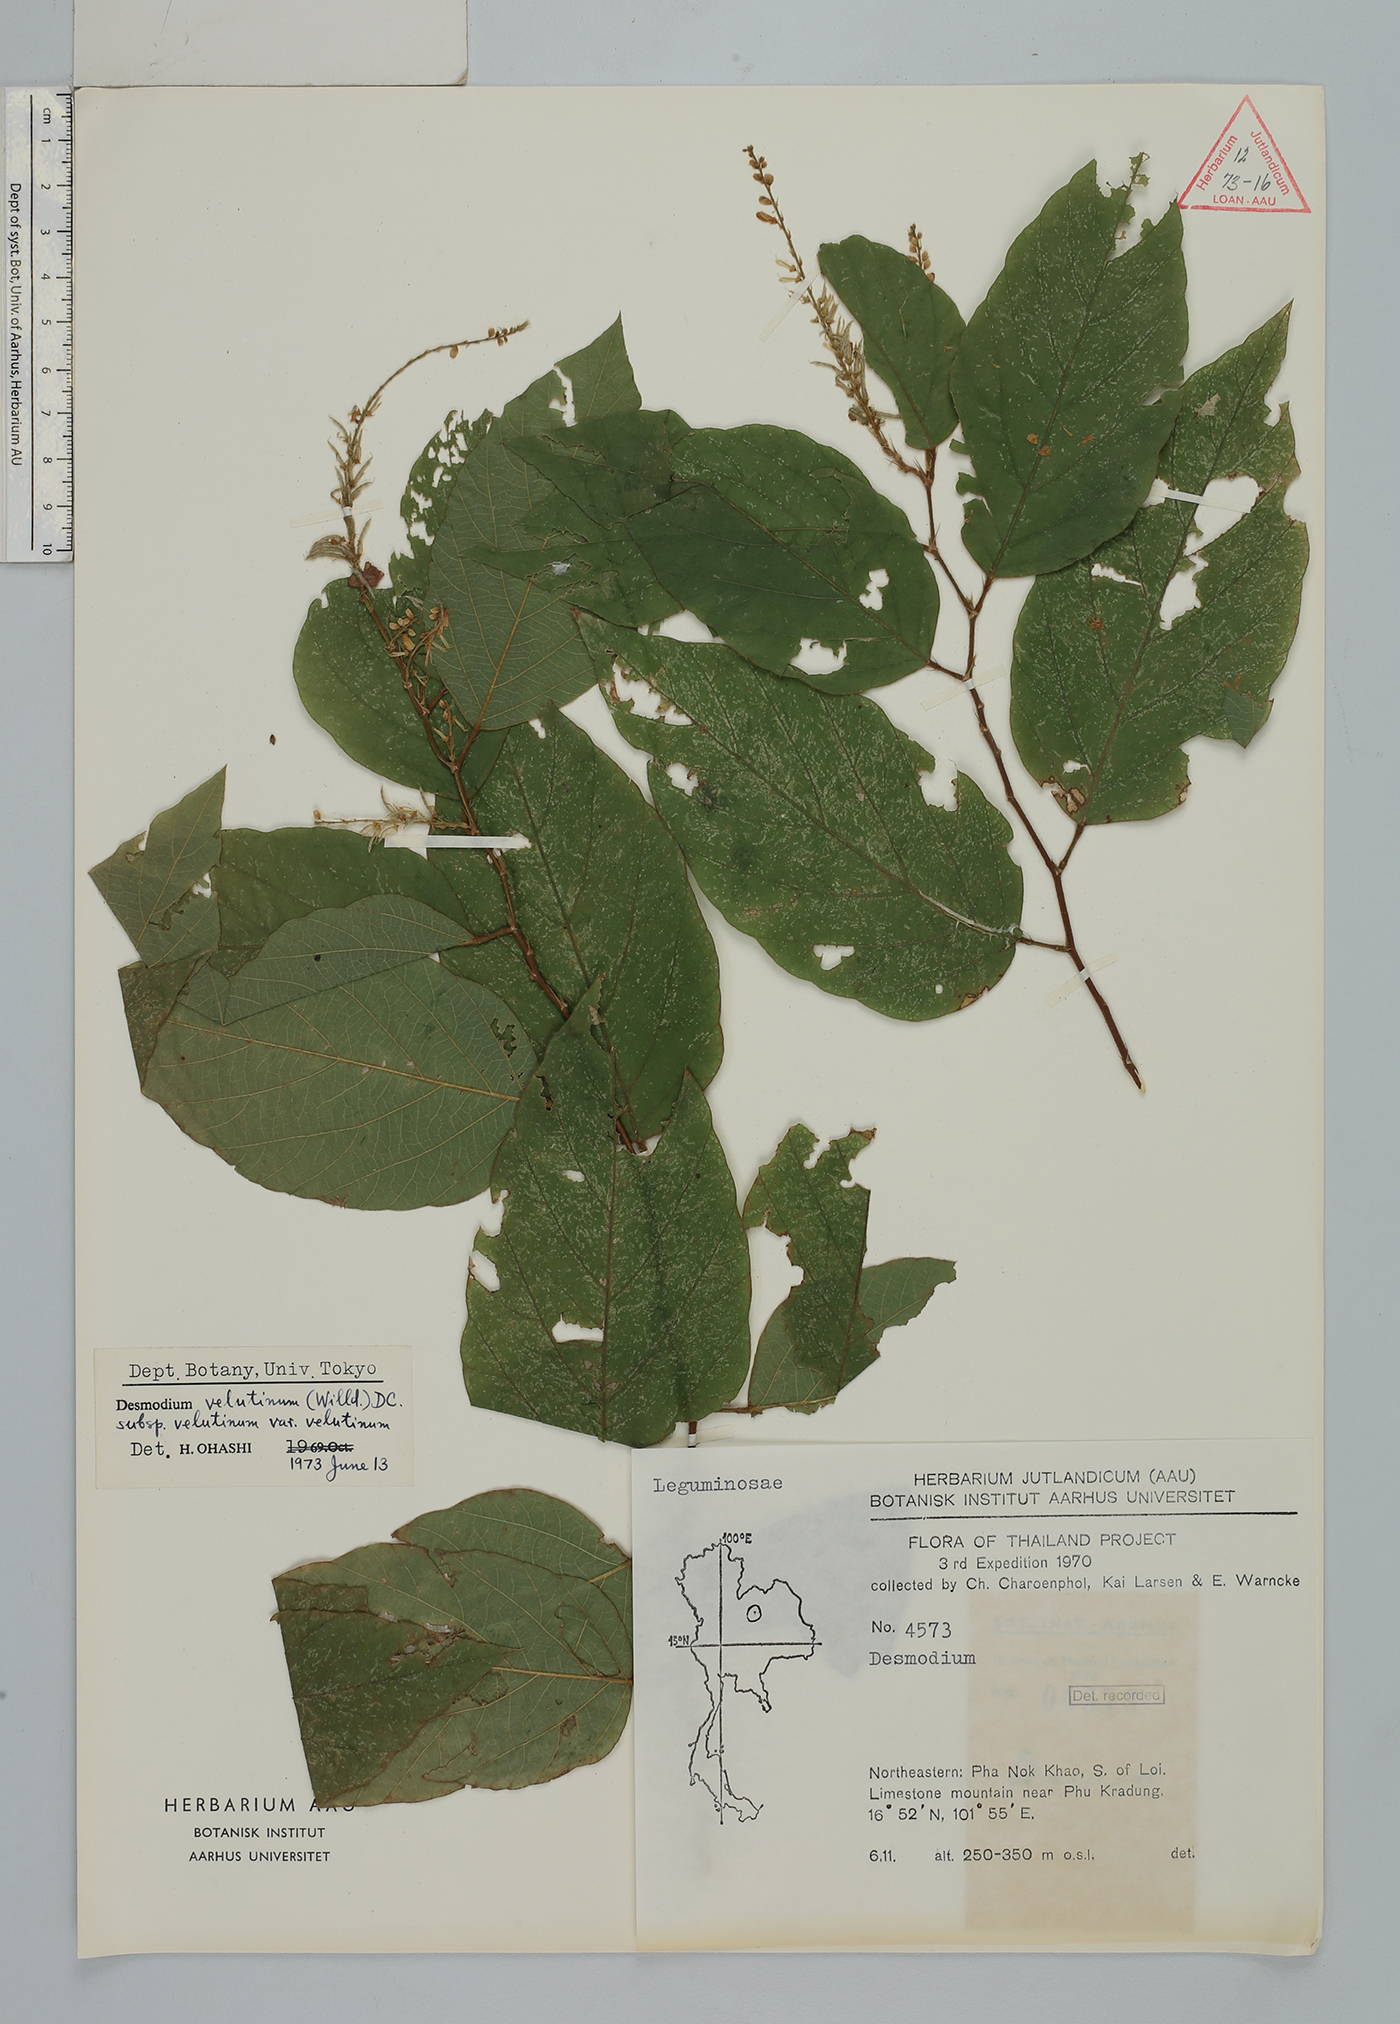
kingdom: Plantae
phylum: Tracheophyta
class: Magnoliopsida
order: Fabales
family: Fabaceae
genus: Polhillides
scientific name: Polhillides velutina
